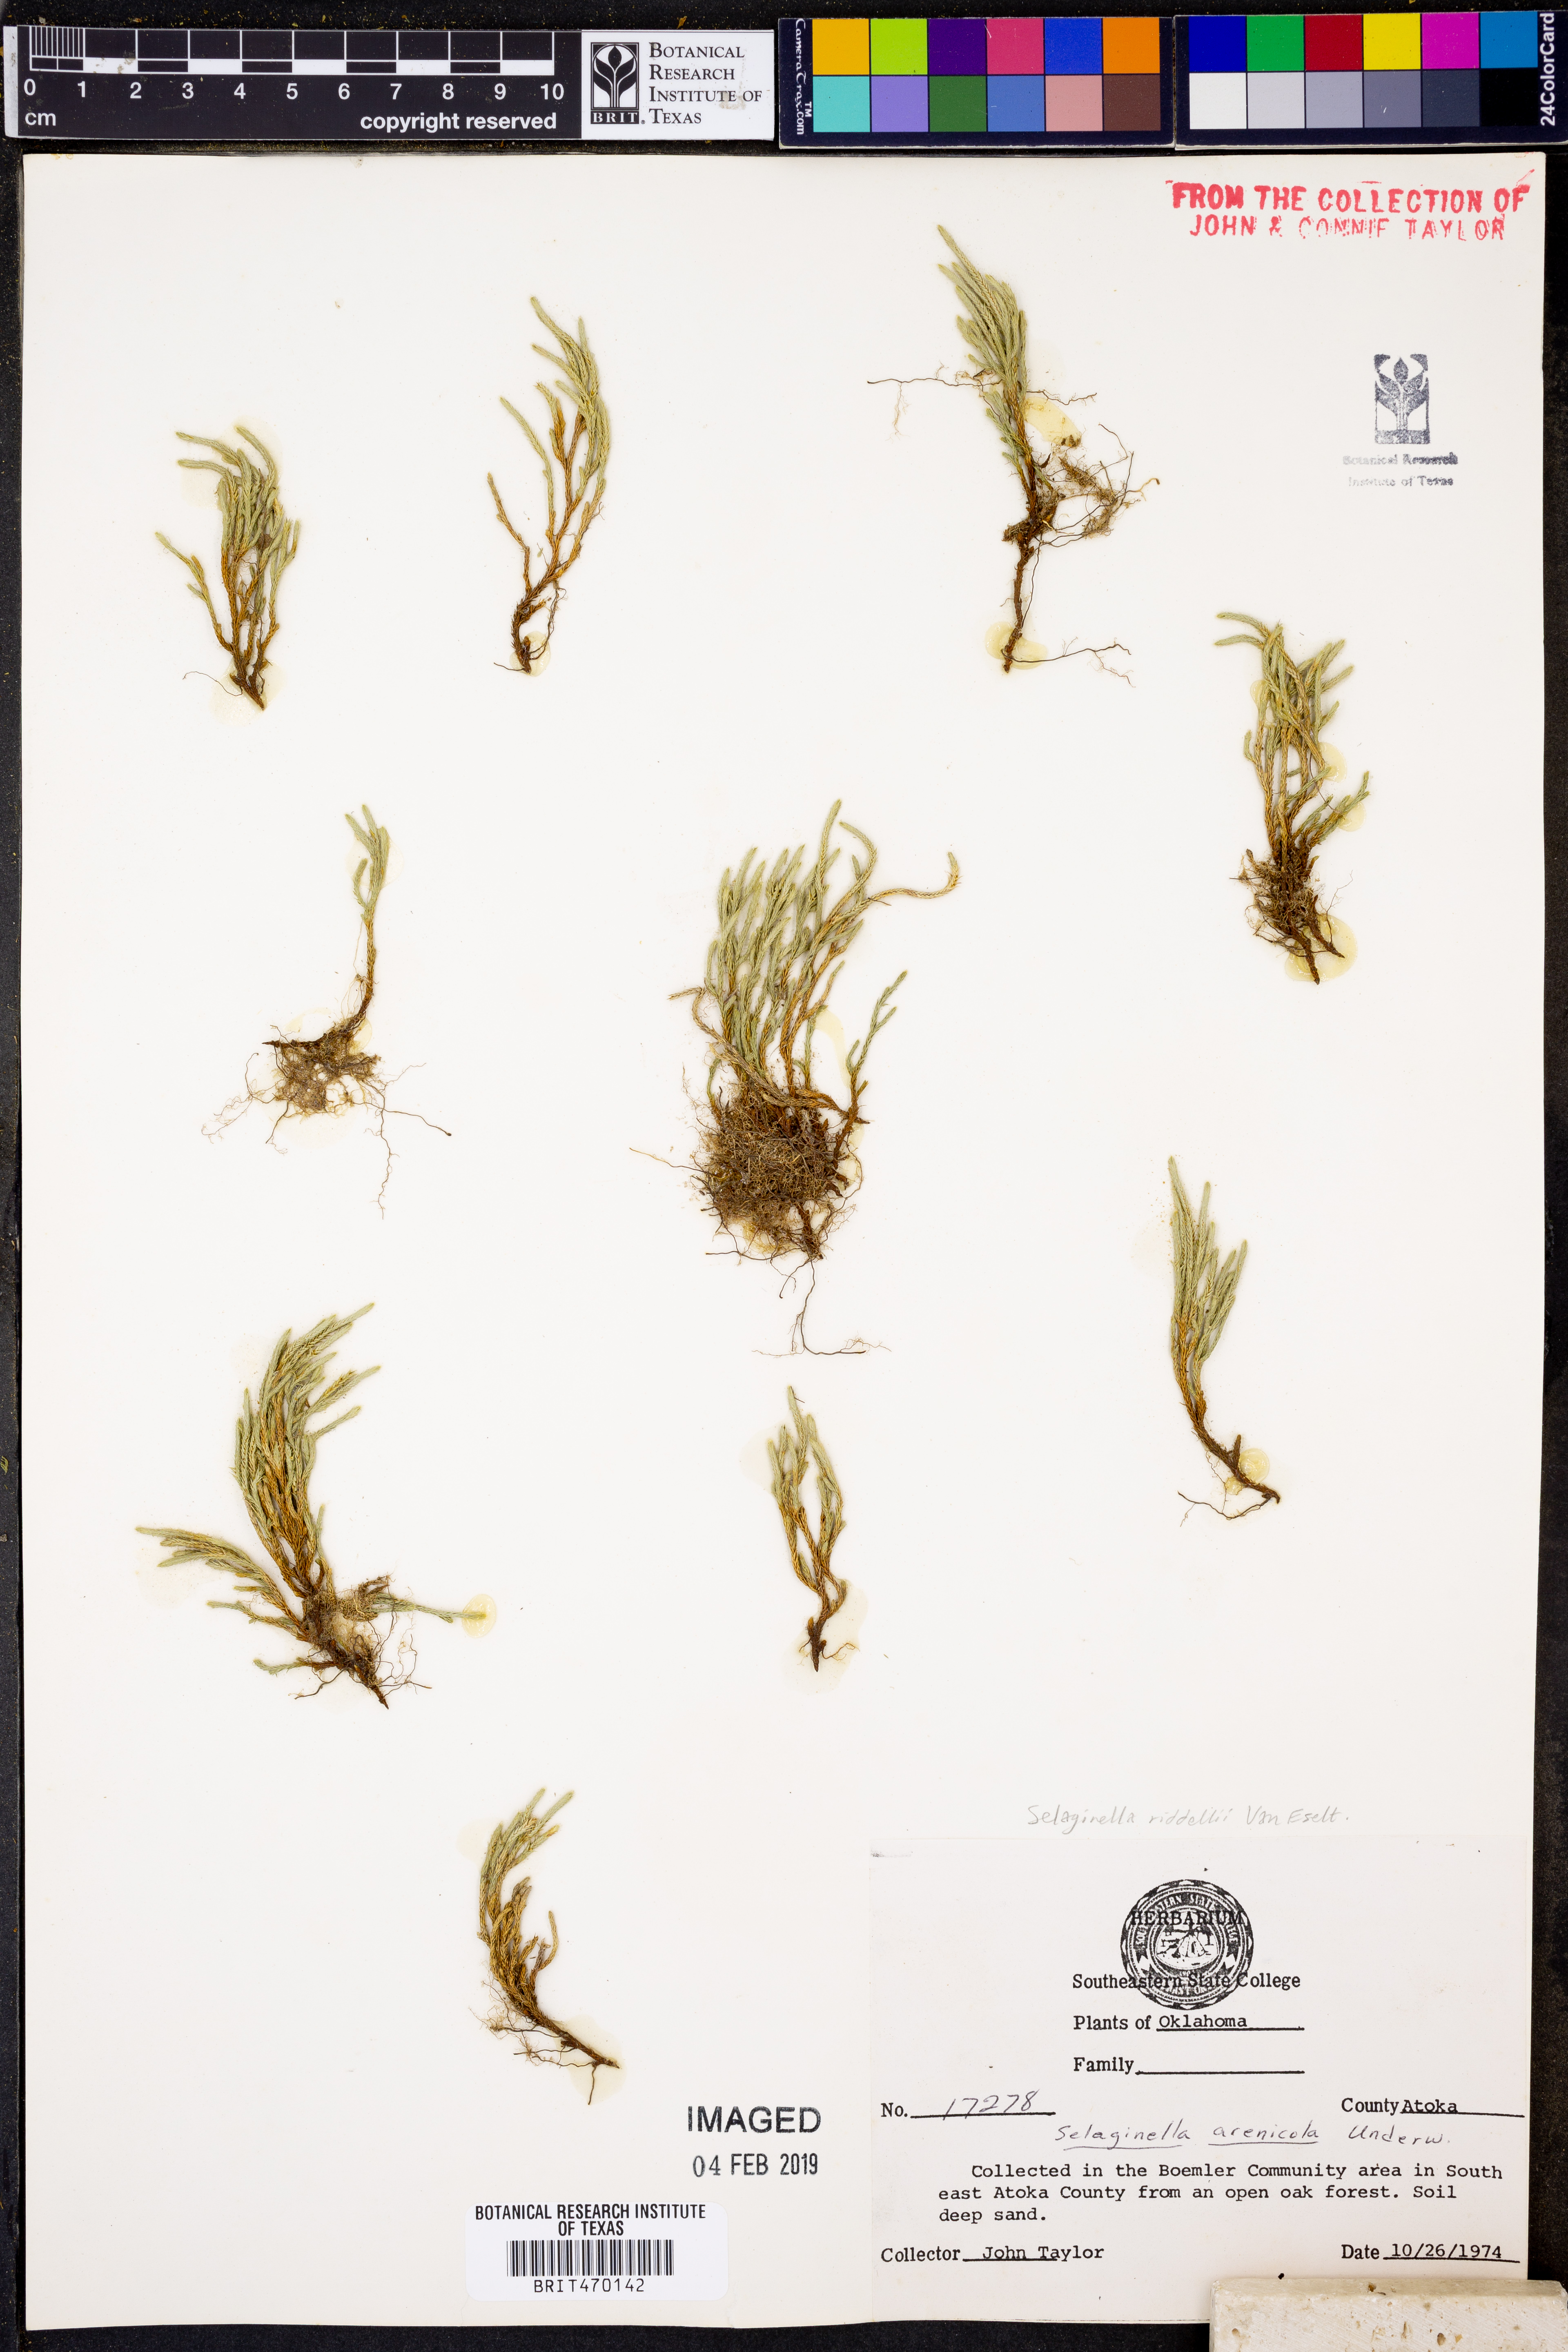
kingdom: Plantae
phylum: Tracheophyta
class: Lycopodiopsida
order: Selaginellales
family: Selaginellaceae
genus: Selaginella
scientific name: Selaginella arenicola
